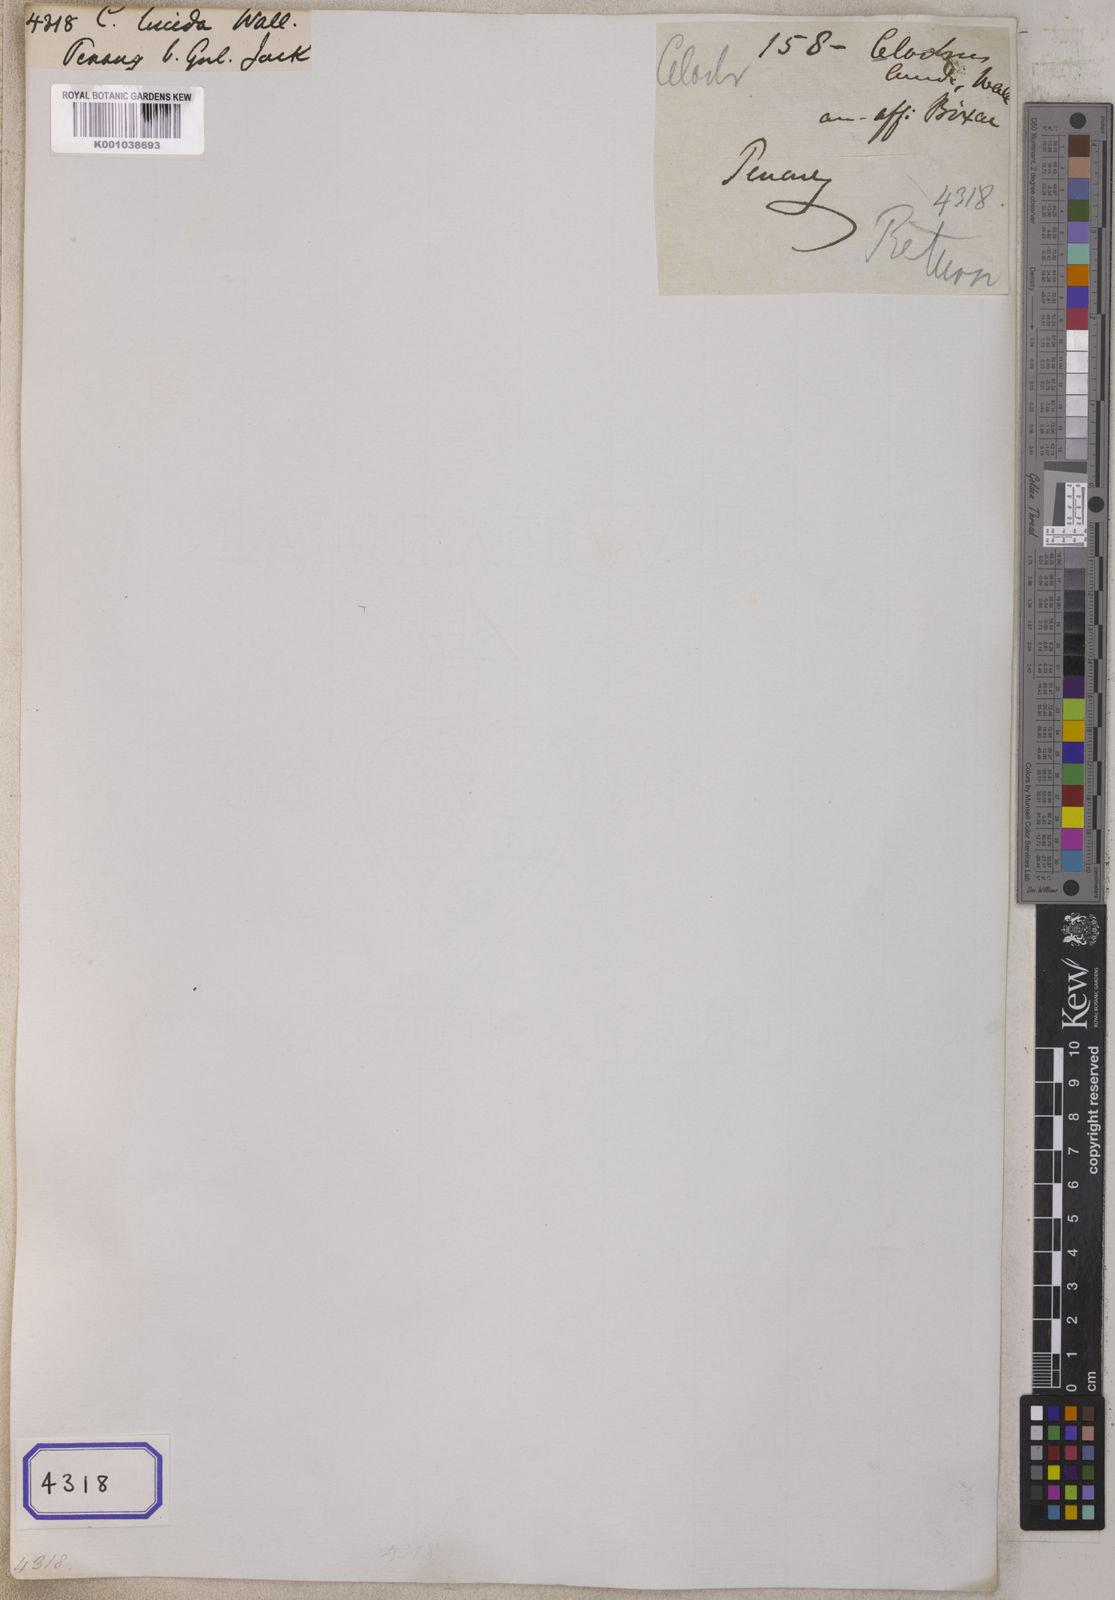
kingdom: Plantae
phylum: Tracheophyta
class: Magnoliopsida
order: Celastrales
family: Celastraceae
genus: Celastrus
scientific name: Celastrus monospermoides
